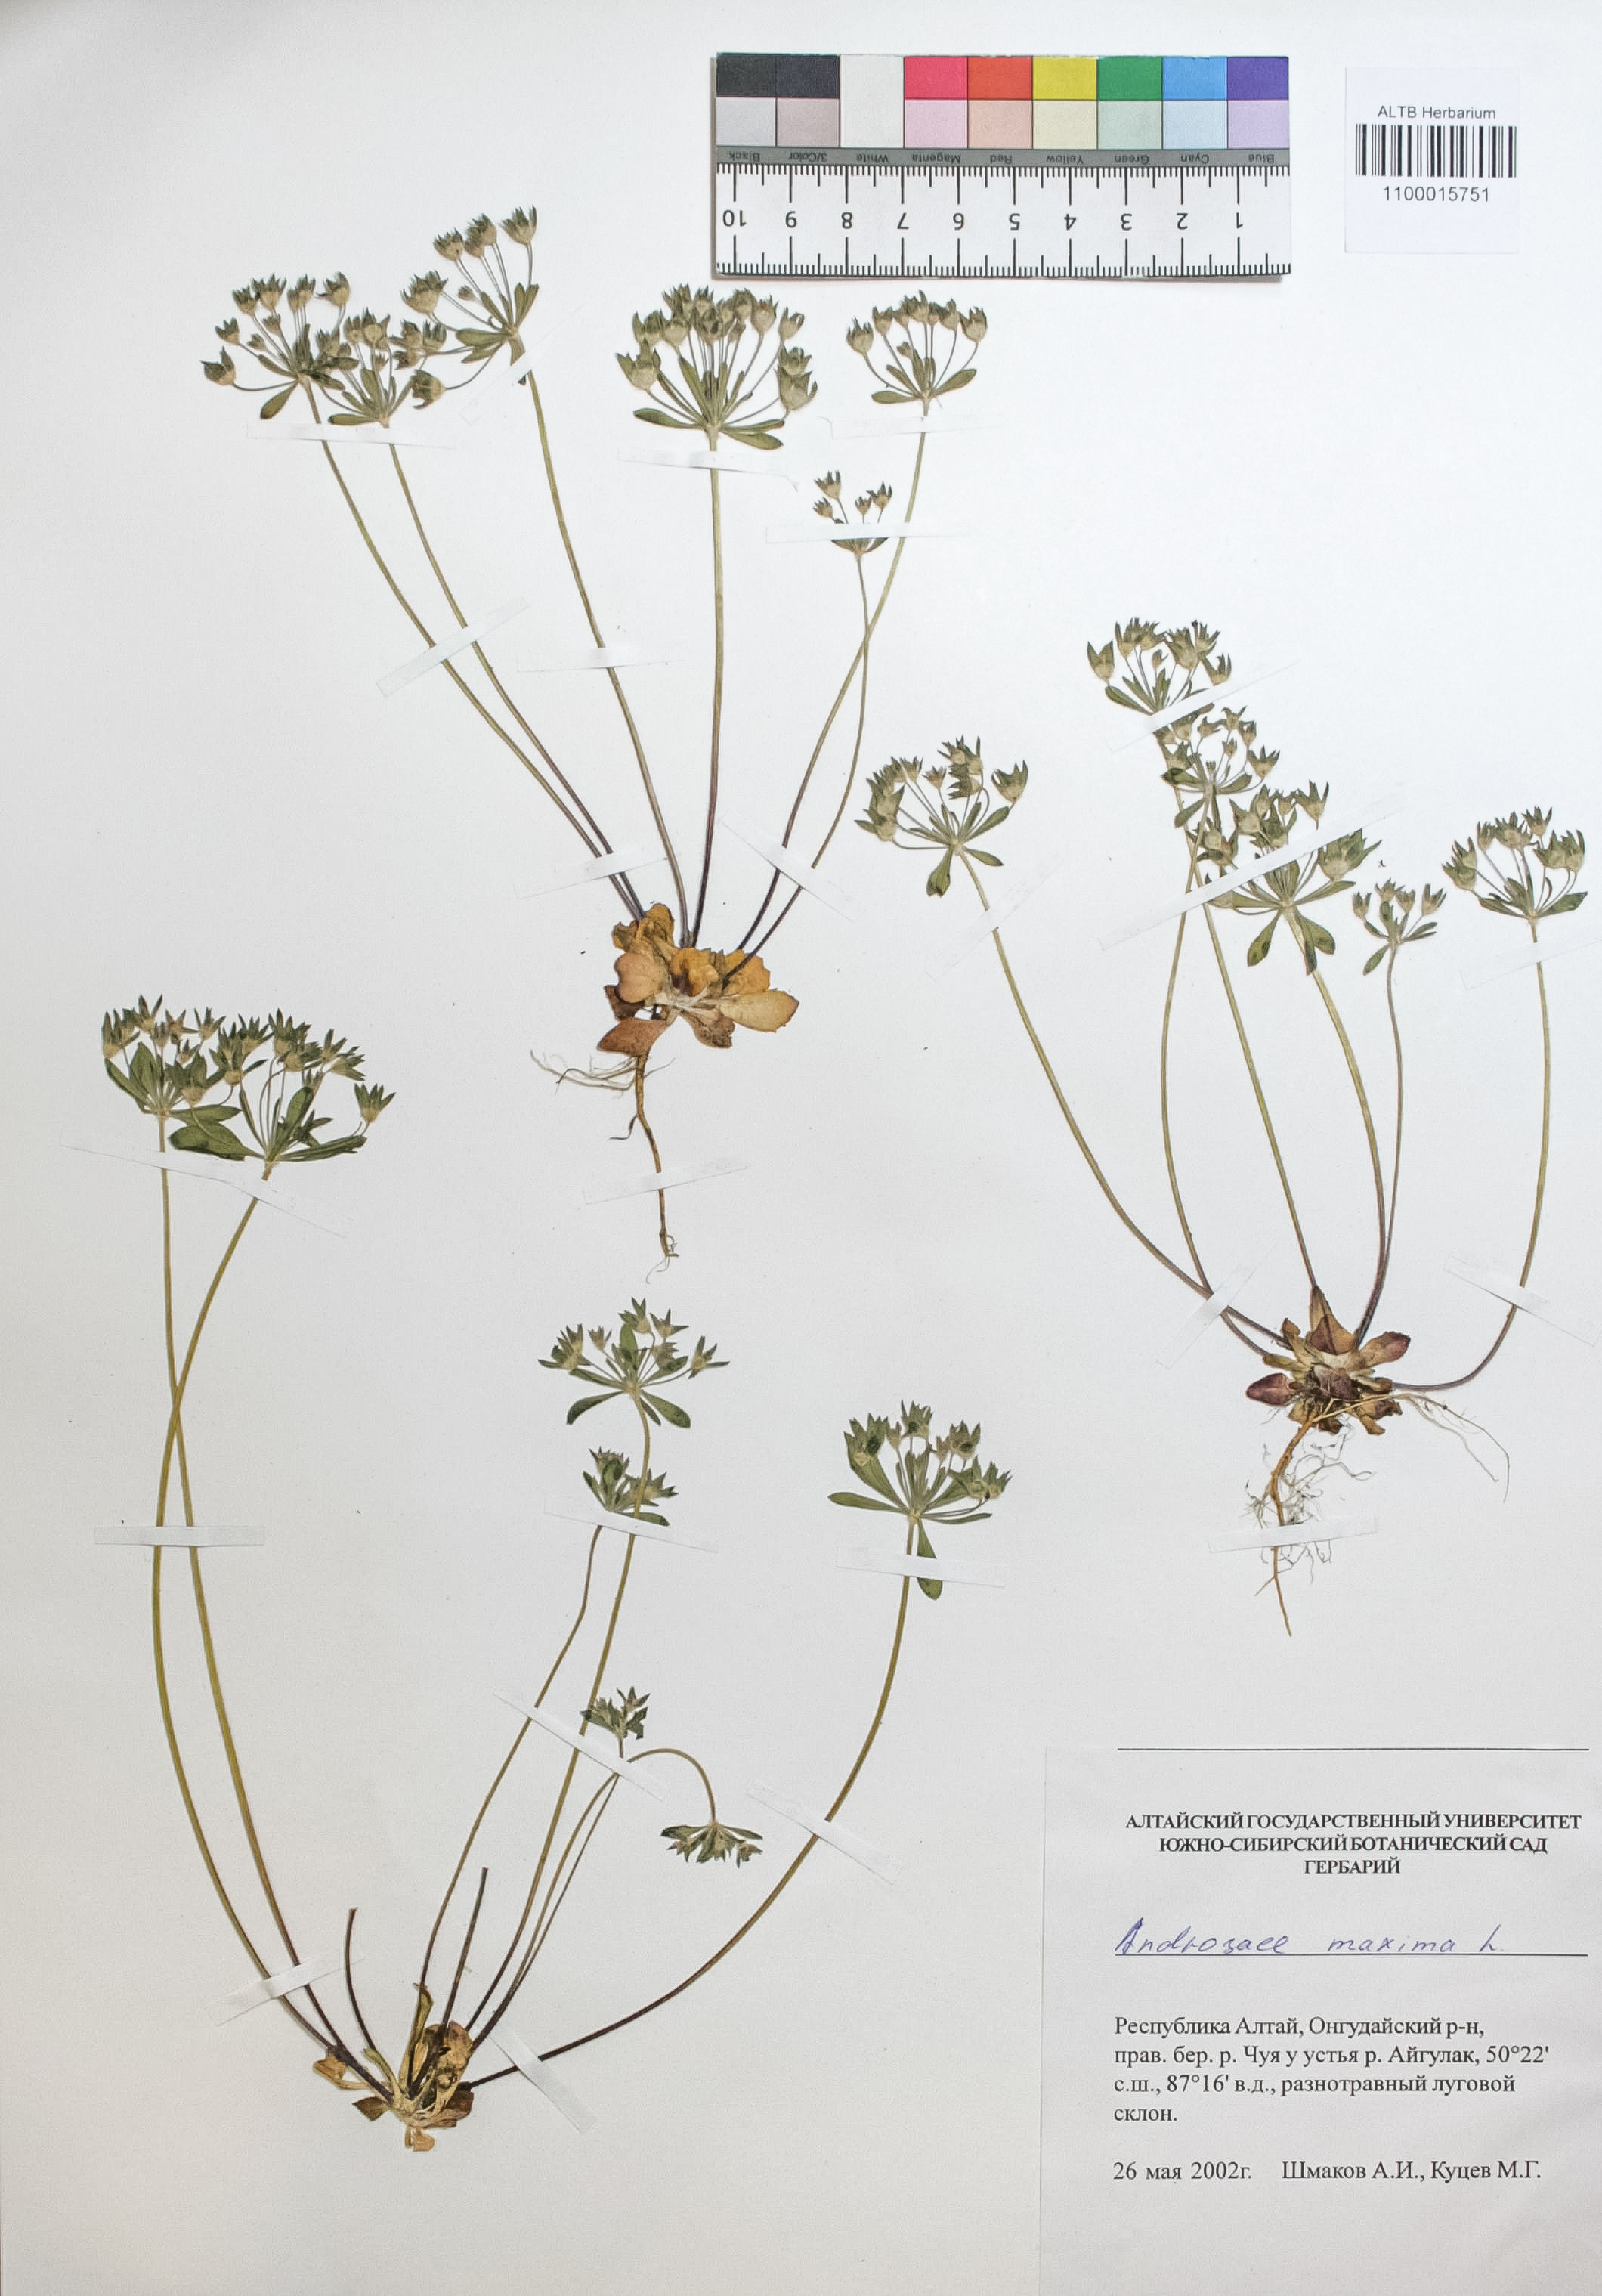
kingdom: Plantae
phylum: Tracheophyta
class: Magnoliopsida
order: Ericales
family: Primulaceae
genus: Androsace
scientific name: Androsace maxima
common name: Annual androsace
